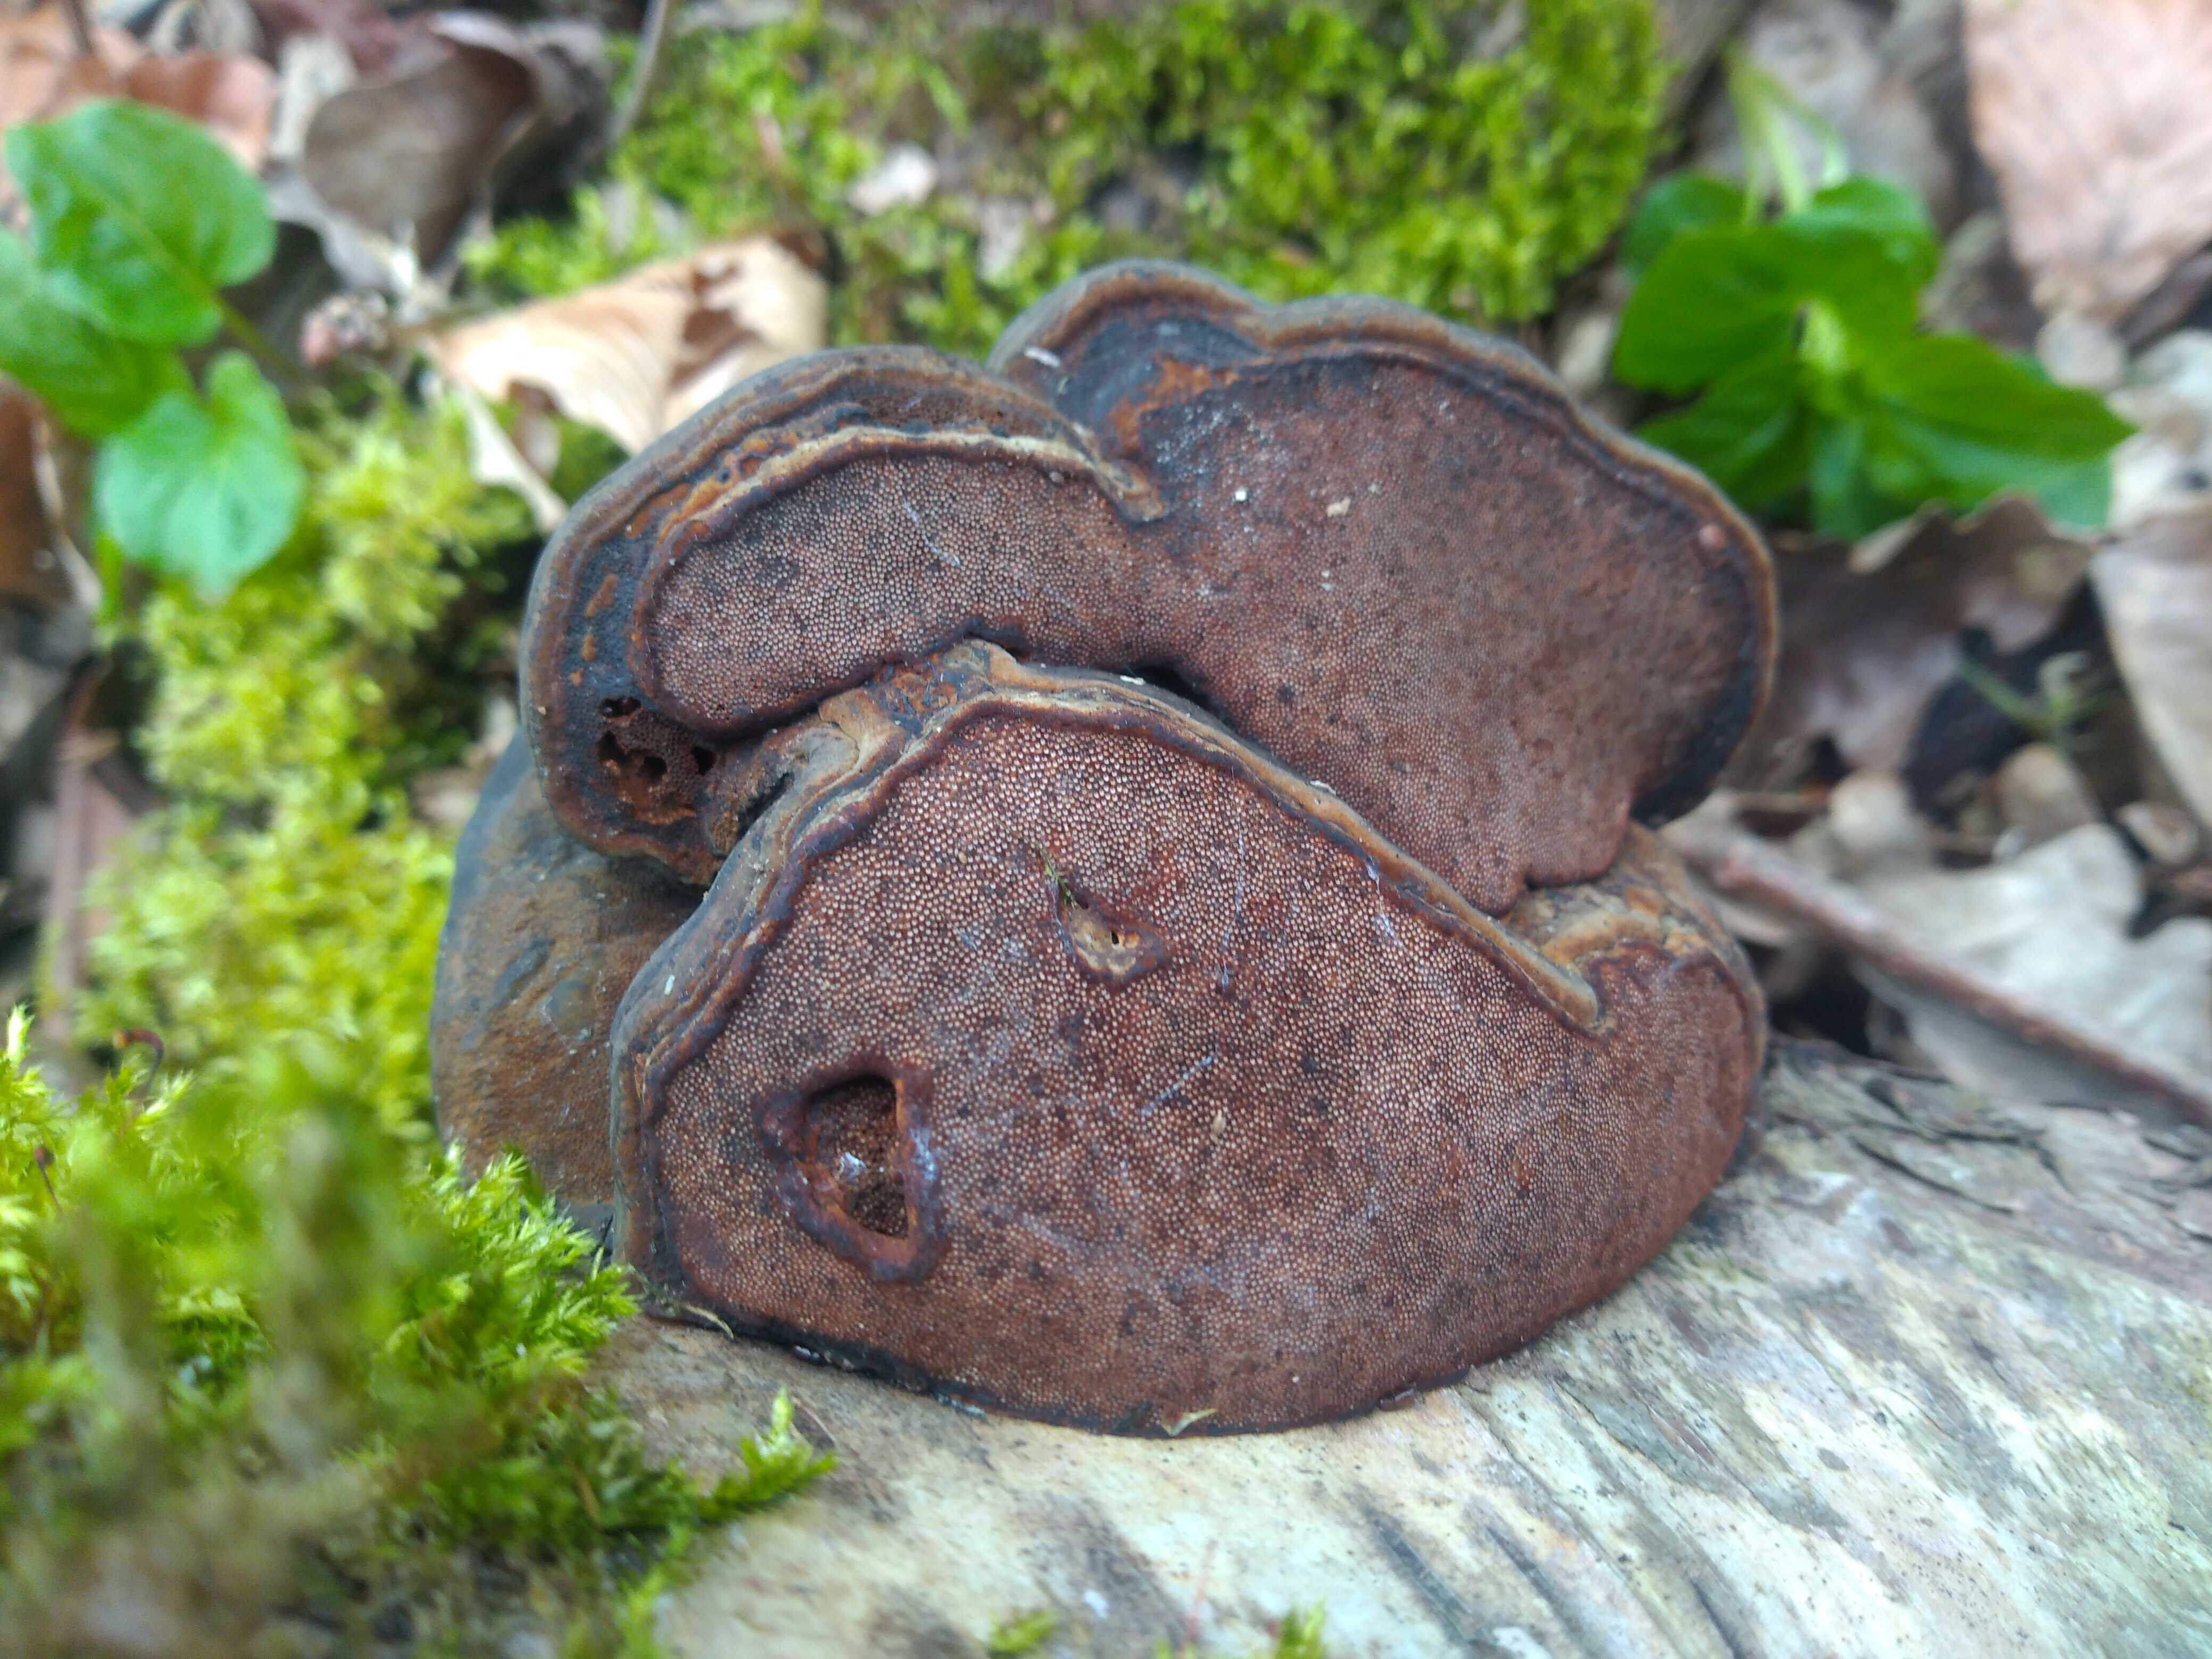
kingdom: Fungi
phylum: Basidiomycota
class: Agaricomycetes
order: Polyporales
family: Polyporaceae
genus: Fomes
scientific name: Fomes fomentarius
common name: tøndersvamp
